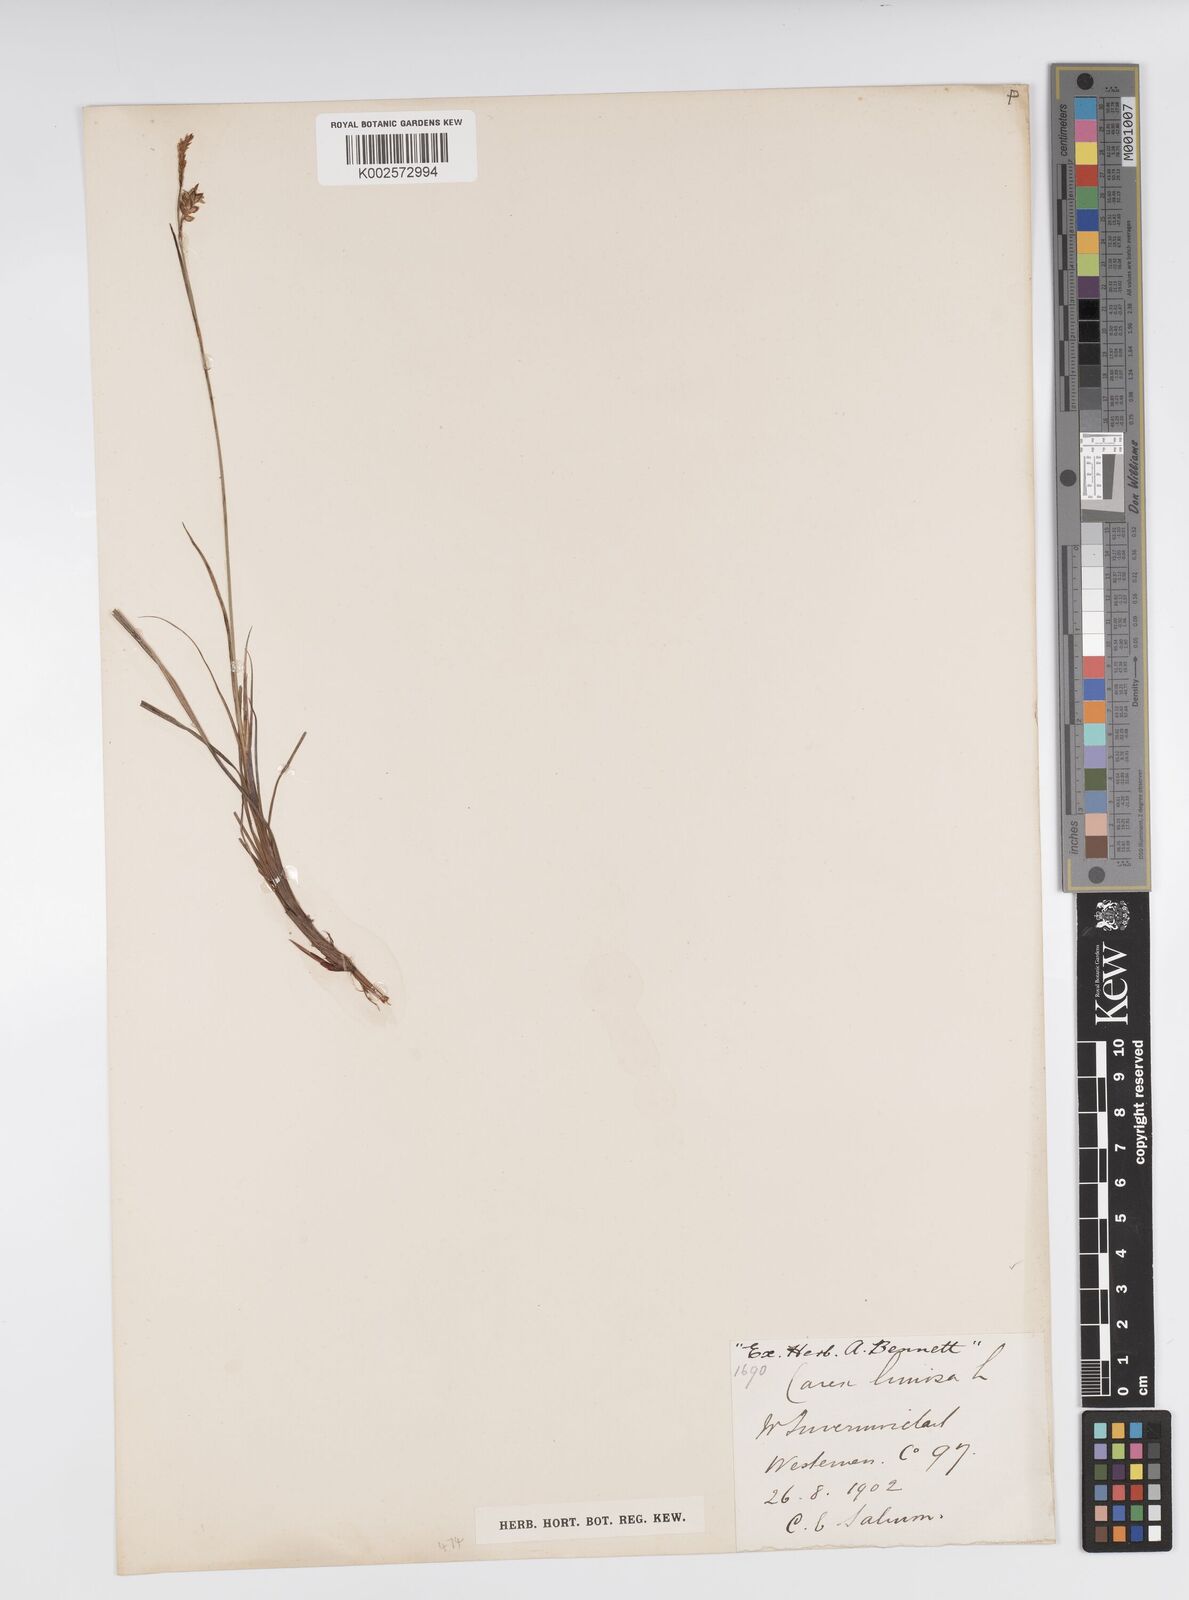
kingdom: Plantae
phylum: Tracheophyta
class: Liliopsida
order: Poales
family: Cyperaceae
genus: Carex
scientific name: Carex limosa
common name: Bog sedge
